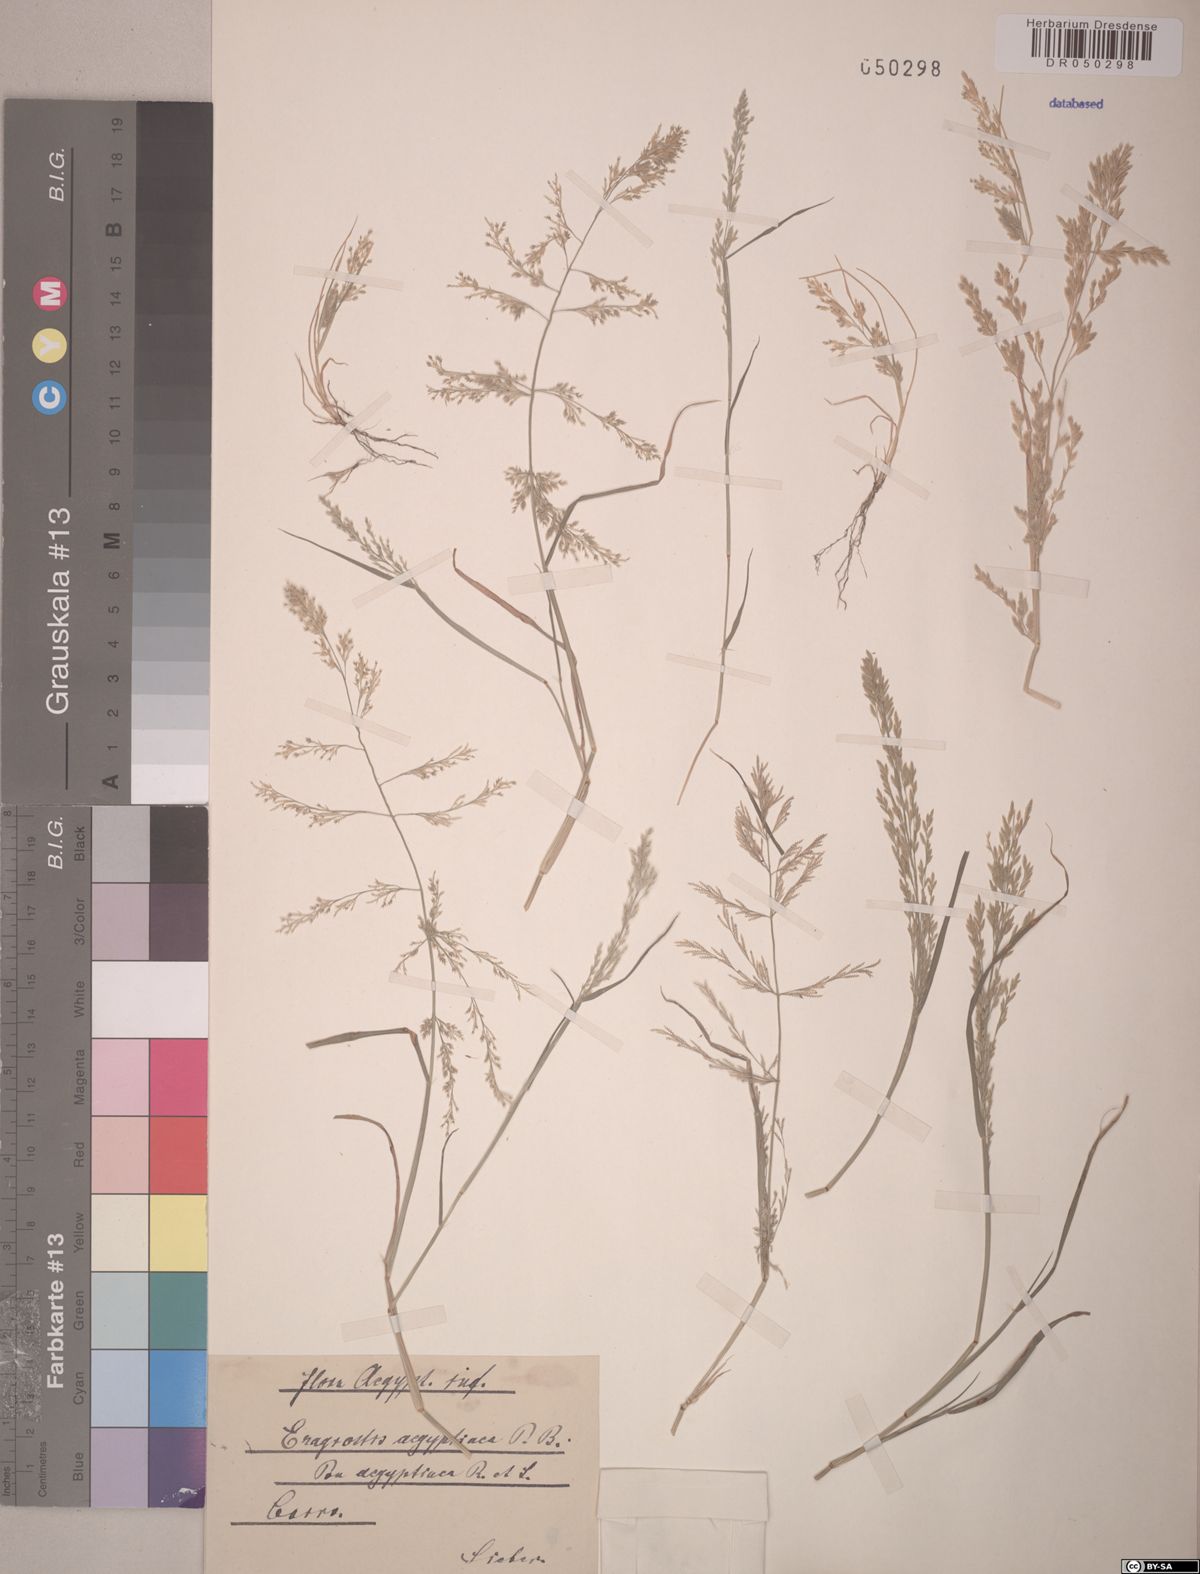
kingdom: Plantae
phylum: Tracheophyta
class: Liliopsida
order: Poales
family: Poaceae
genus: Eragrostis
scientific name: Eragrostis aegyptiaca
